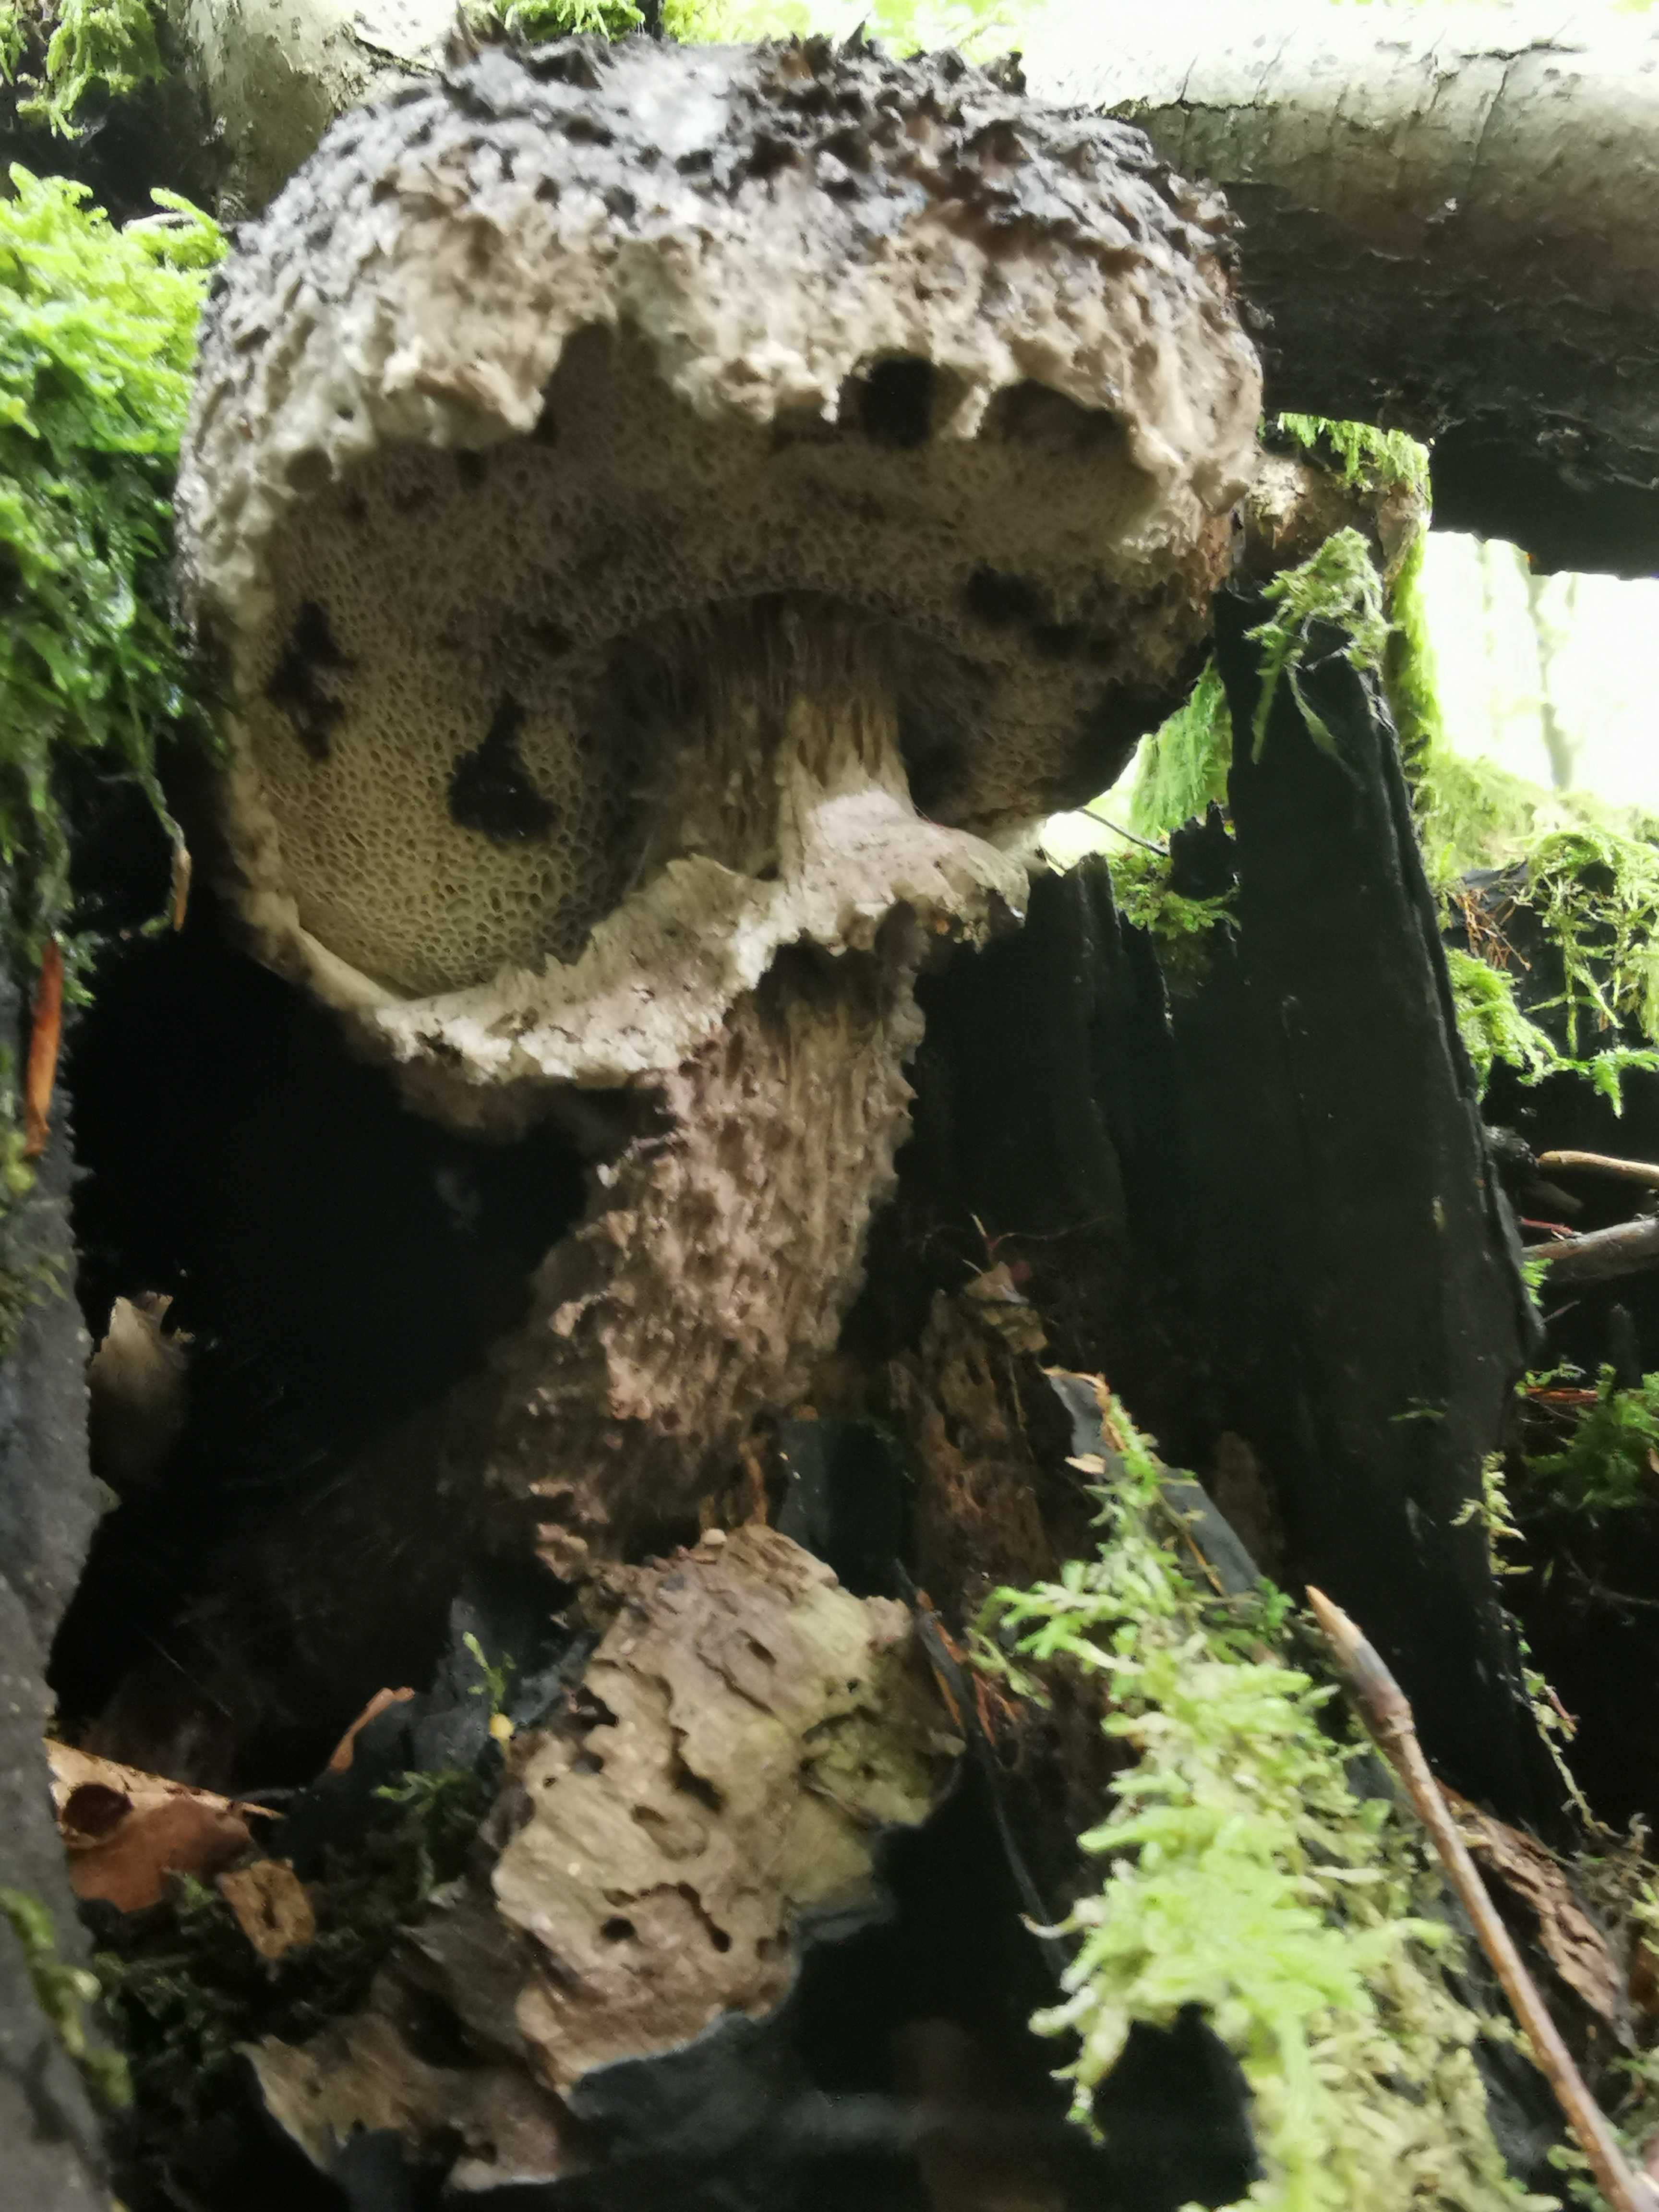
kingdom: Fungi
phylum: Basidiomycota
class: Agaricomycetes
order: Boletales
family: Boletaceae
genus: Strobilomyces
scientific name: Strobilomyces strobilaceus
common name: koglerørhat
